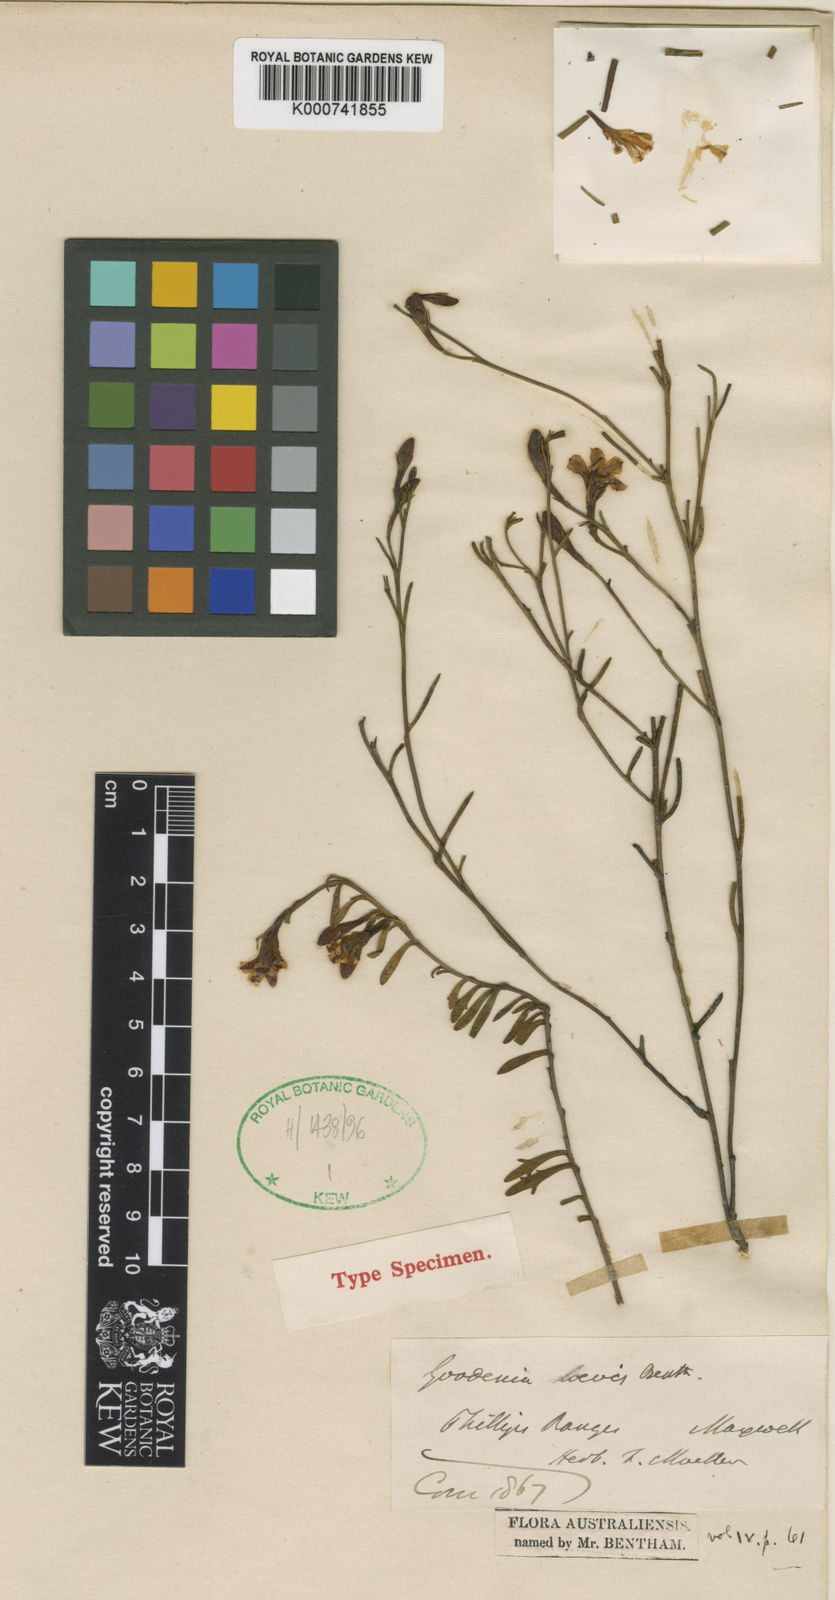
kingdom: Plantae
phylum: Tracheophyta
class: Magnoliopsida
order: Asterales
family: Goodeniaceae
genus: Goodenia
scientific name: Goodenia laevis
